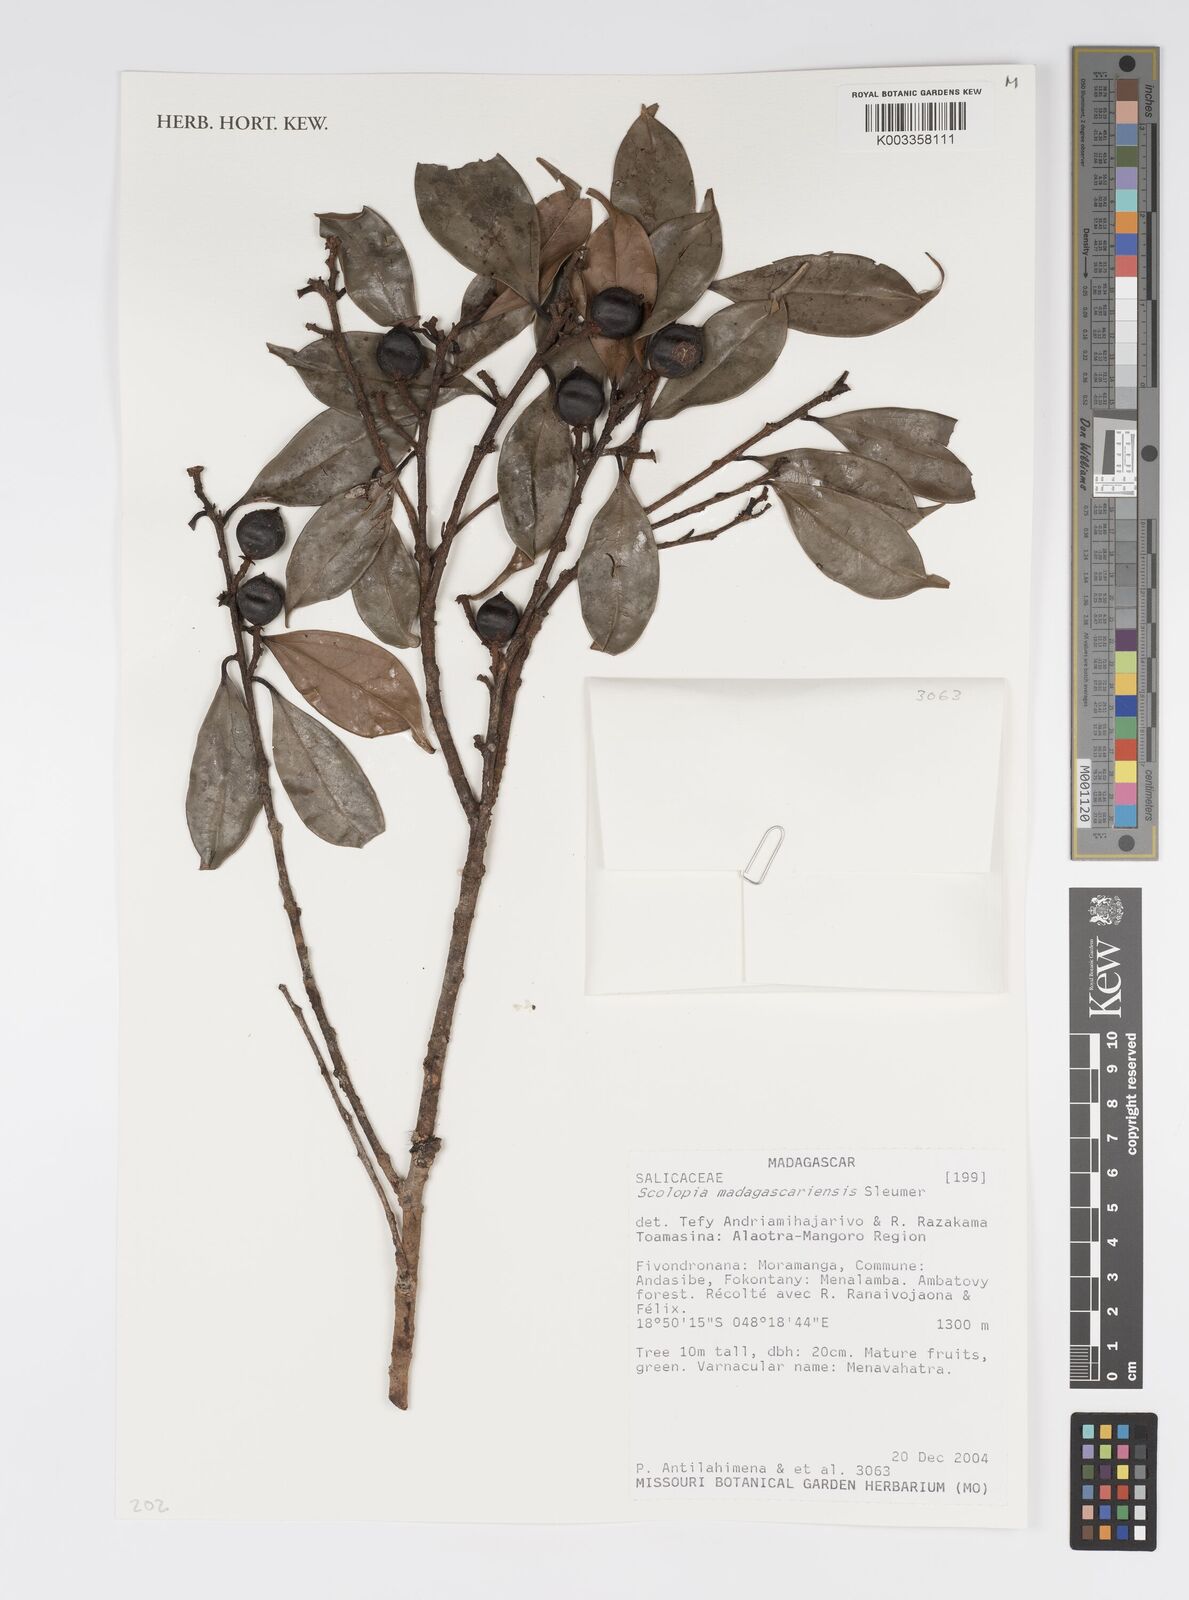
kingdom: Plantae
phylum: Tracheophyta
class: Magnoliopsida
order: Malpighiales
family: Salicaceae
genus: Scolopia
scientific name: Scolopia madagascariensis
